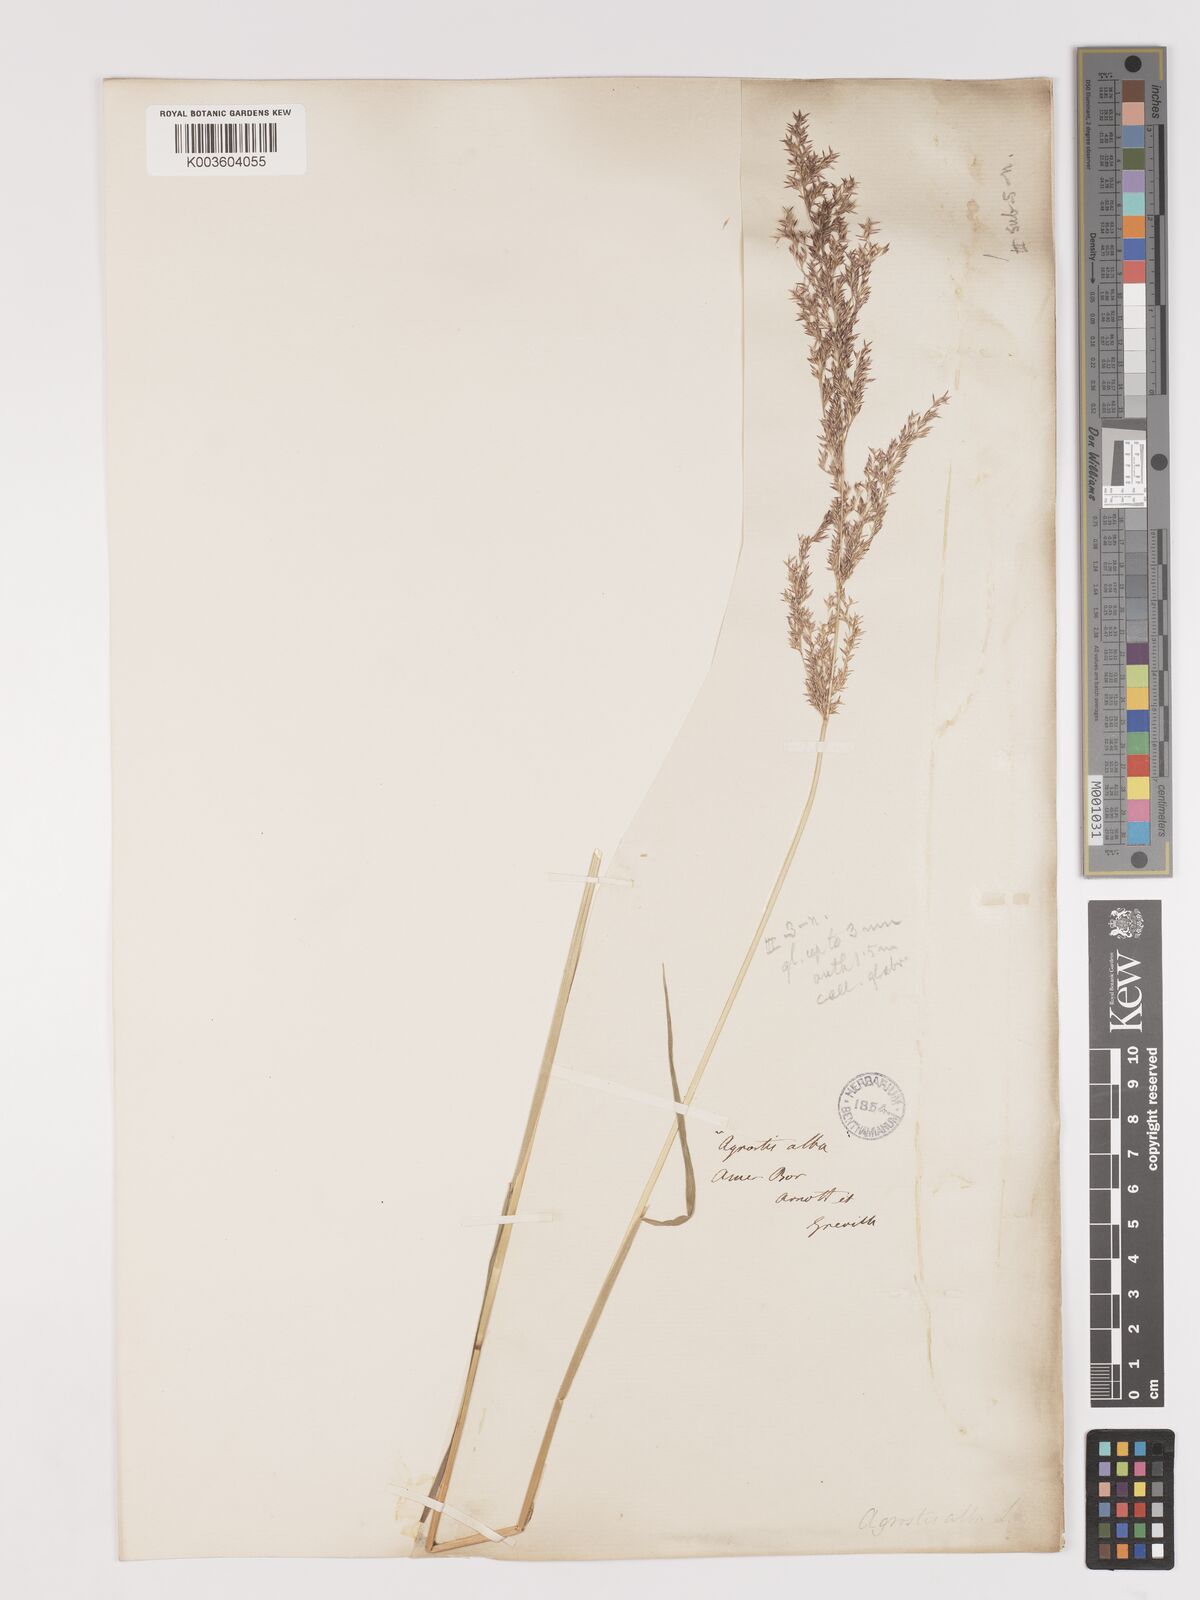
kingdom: Plantae
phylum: Tracheophyta
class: Liliopsida
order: Poales
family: Poaceae
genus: Agrostis
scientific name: Agrostis gigantea
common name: Black bent
